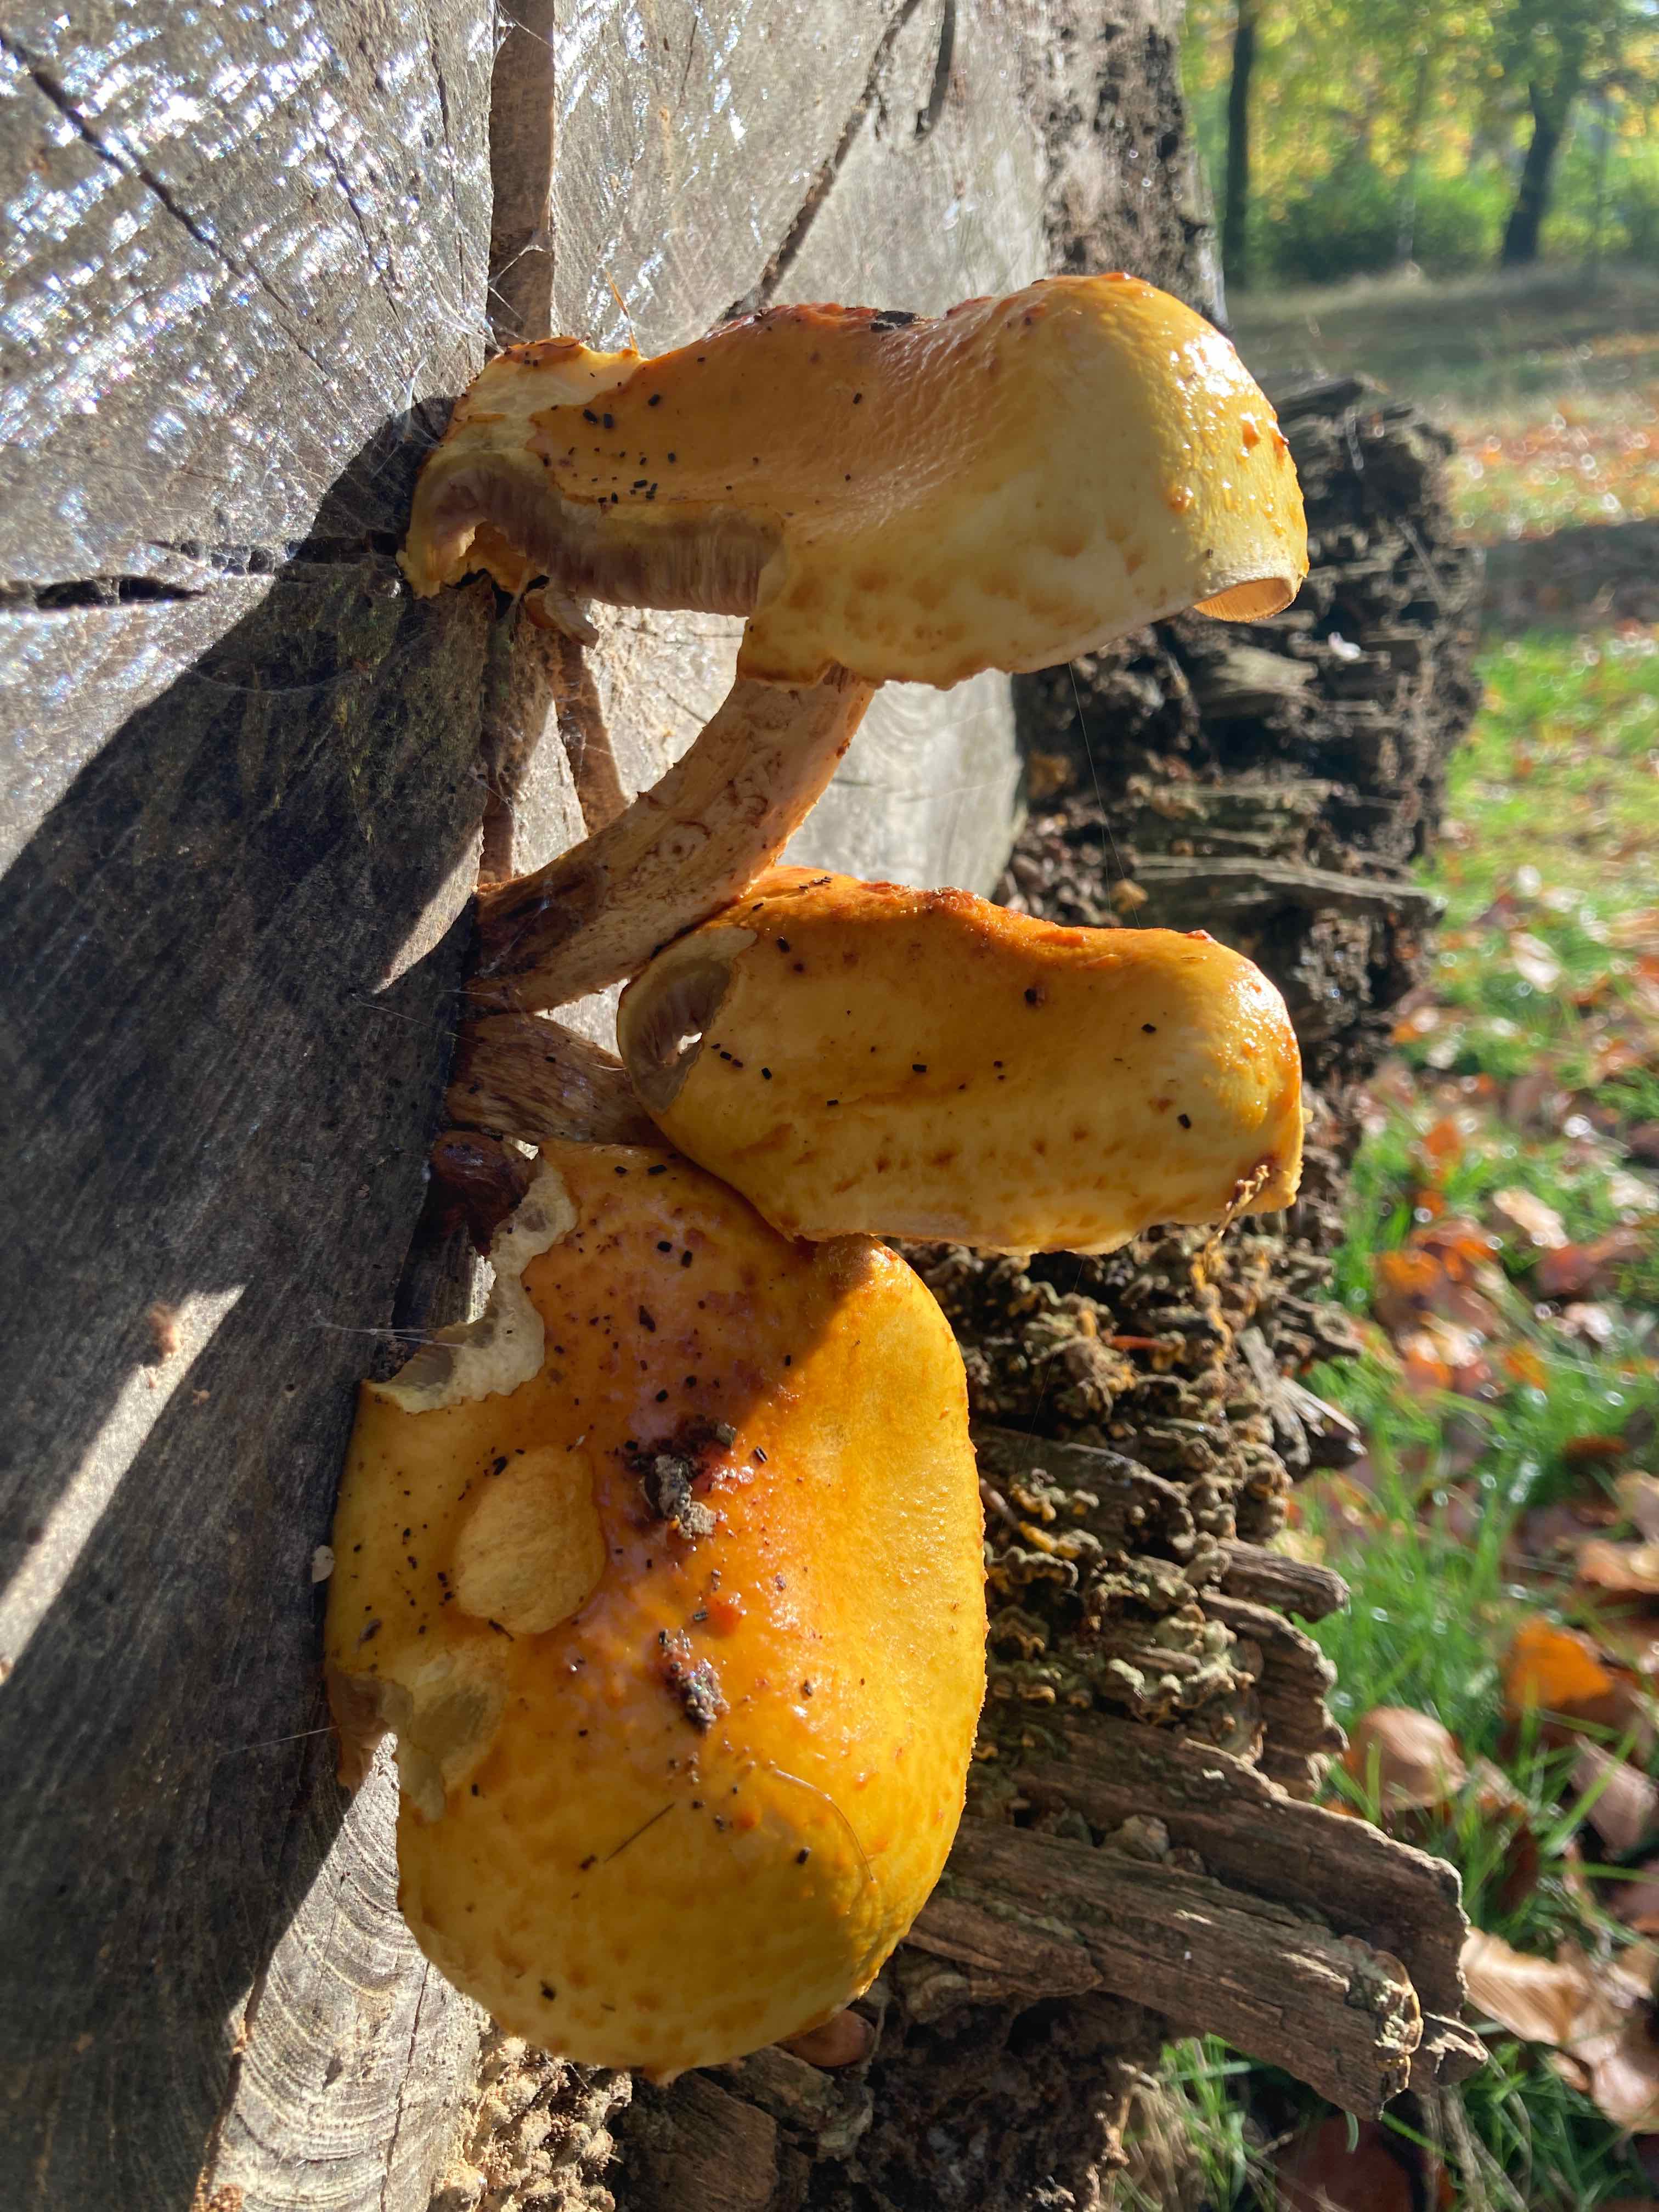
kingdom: Fungi
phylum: Basidiomycota
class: Agaricomycetes
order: Agaricales
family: Strophariaceae
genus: Pholiota
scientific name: Pholiota adiposa
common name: højtsiddende skælhat
